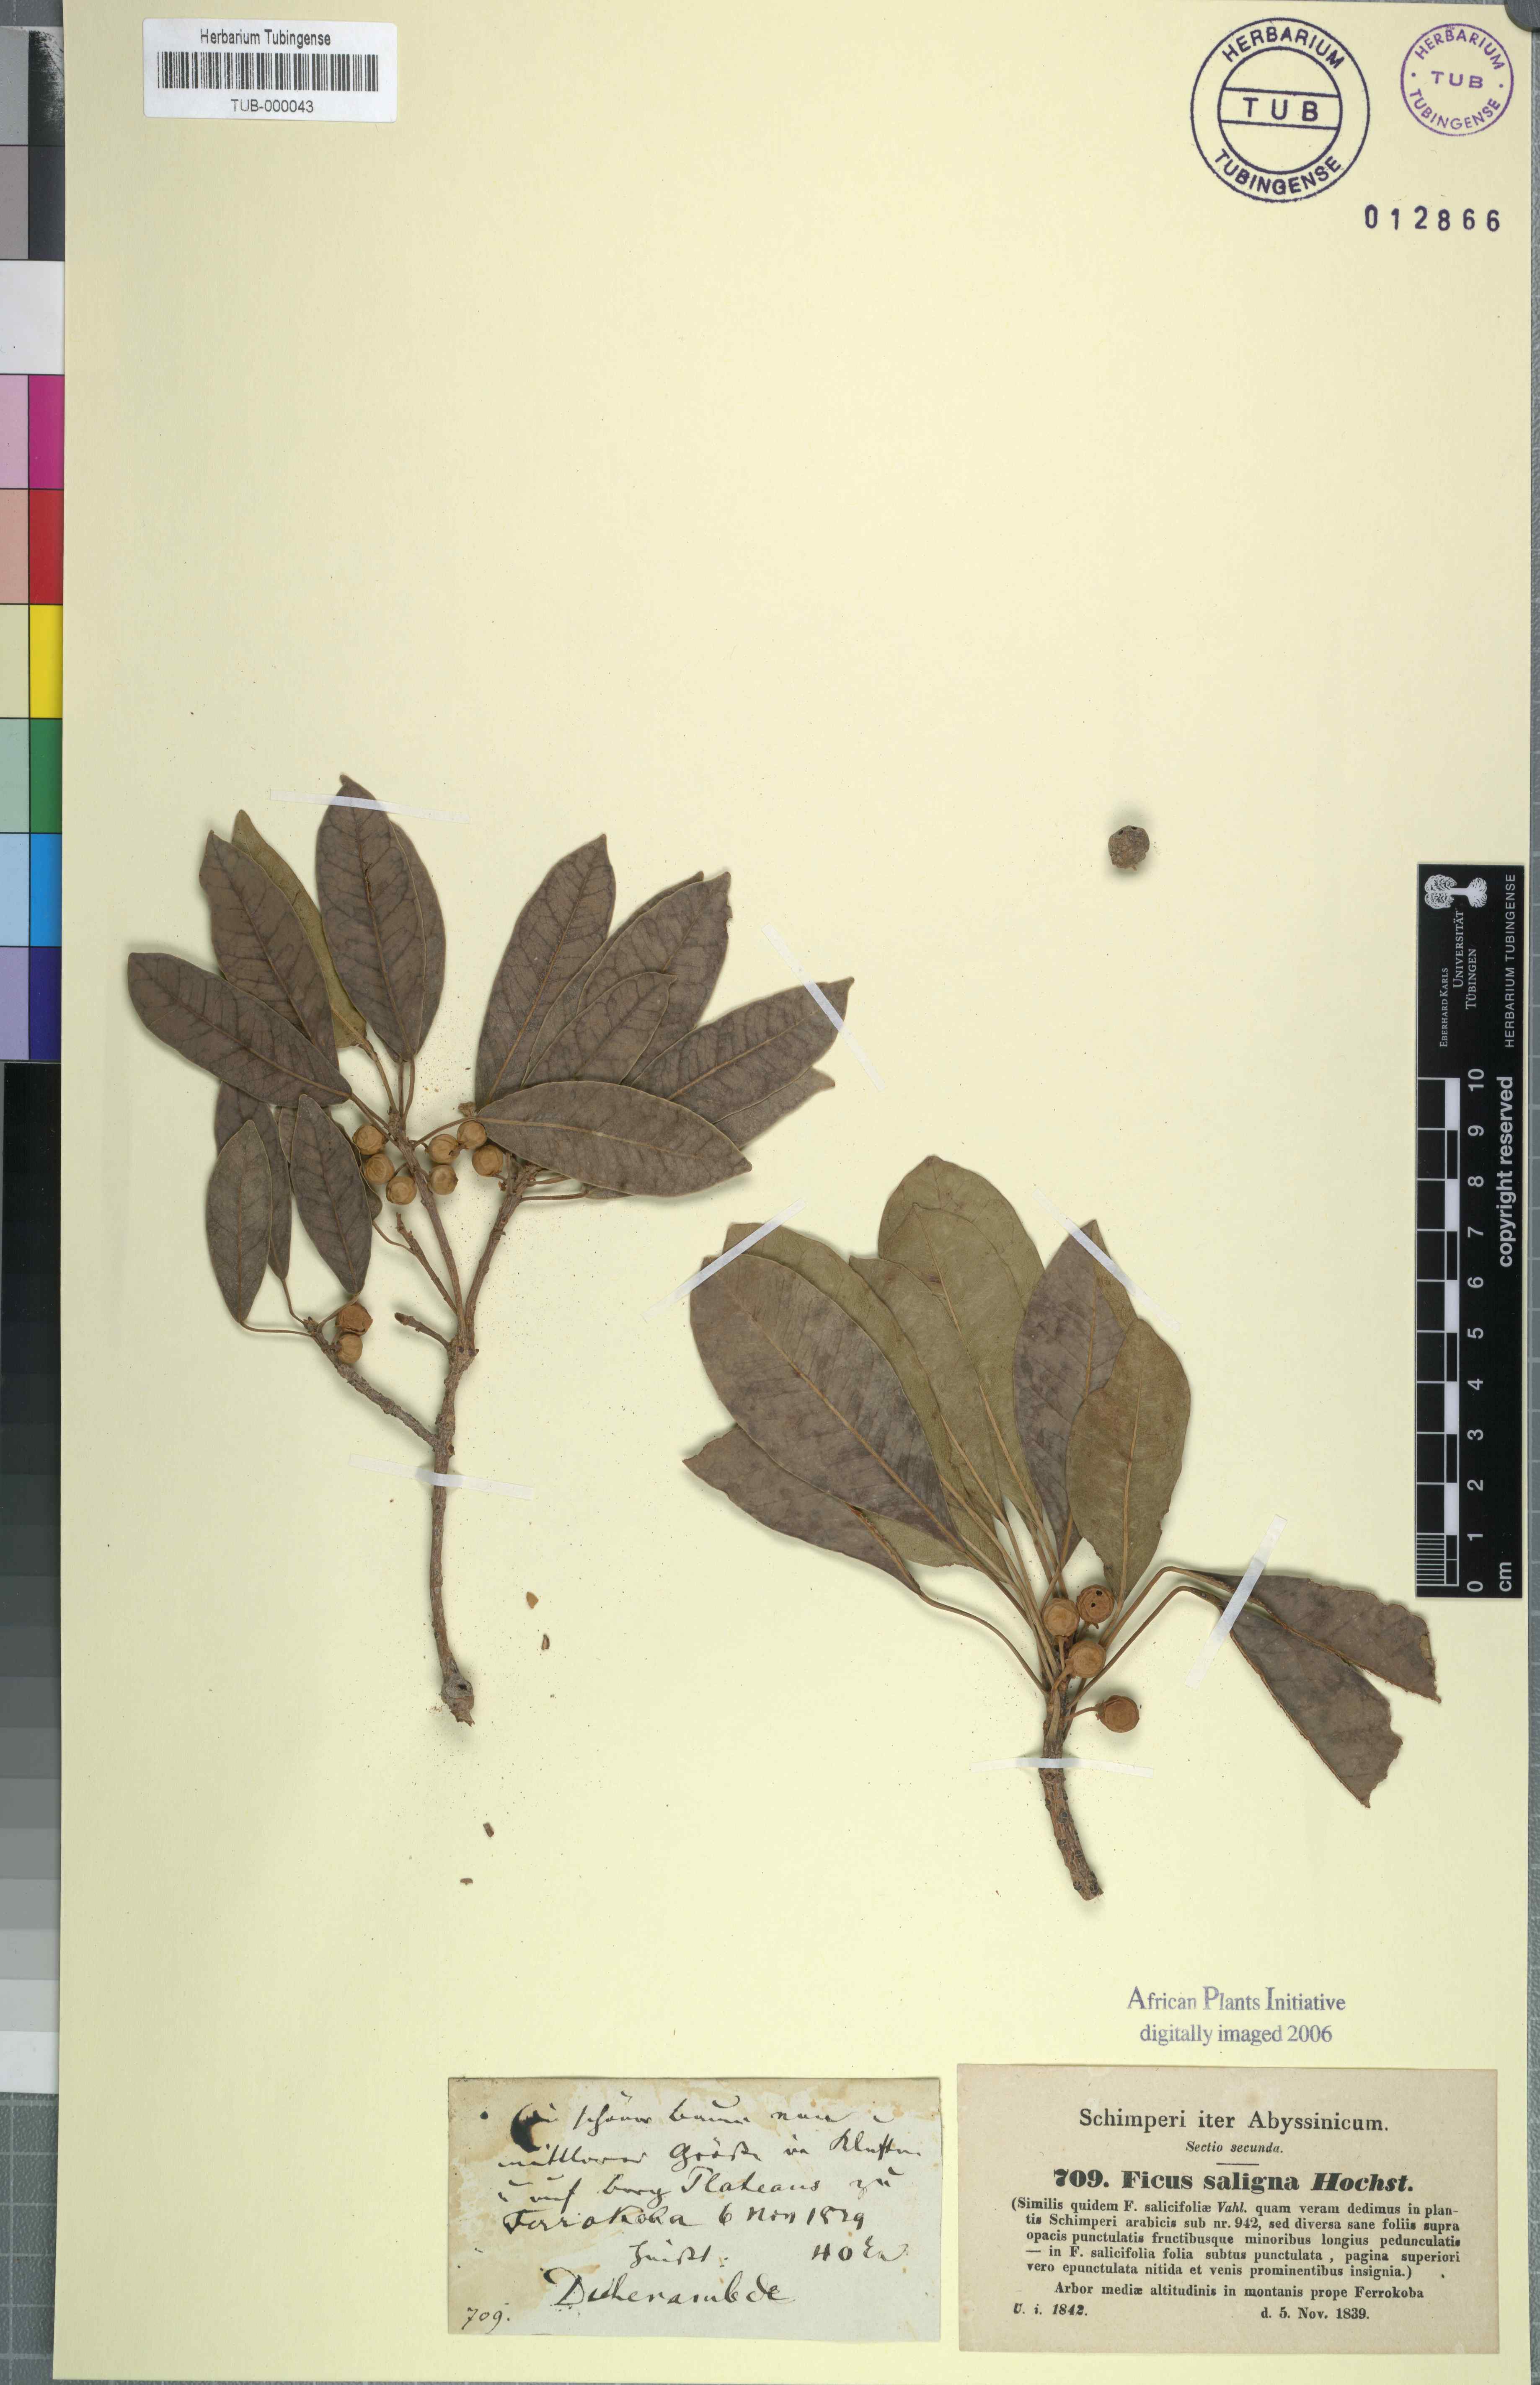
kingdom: Plantae
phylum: Tracheophyta
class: Magnoliopsida
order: Rosales
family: Moraceae
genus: Ficus
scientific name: Ficus thonningii
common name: Fig
